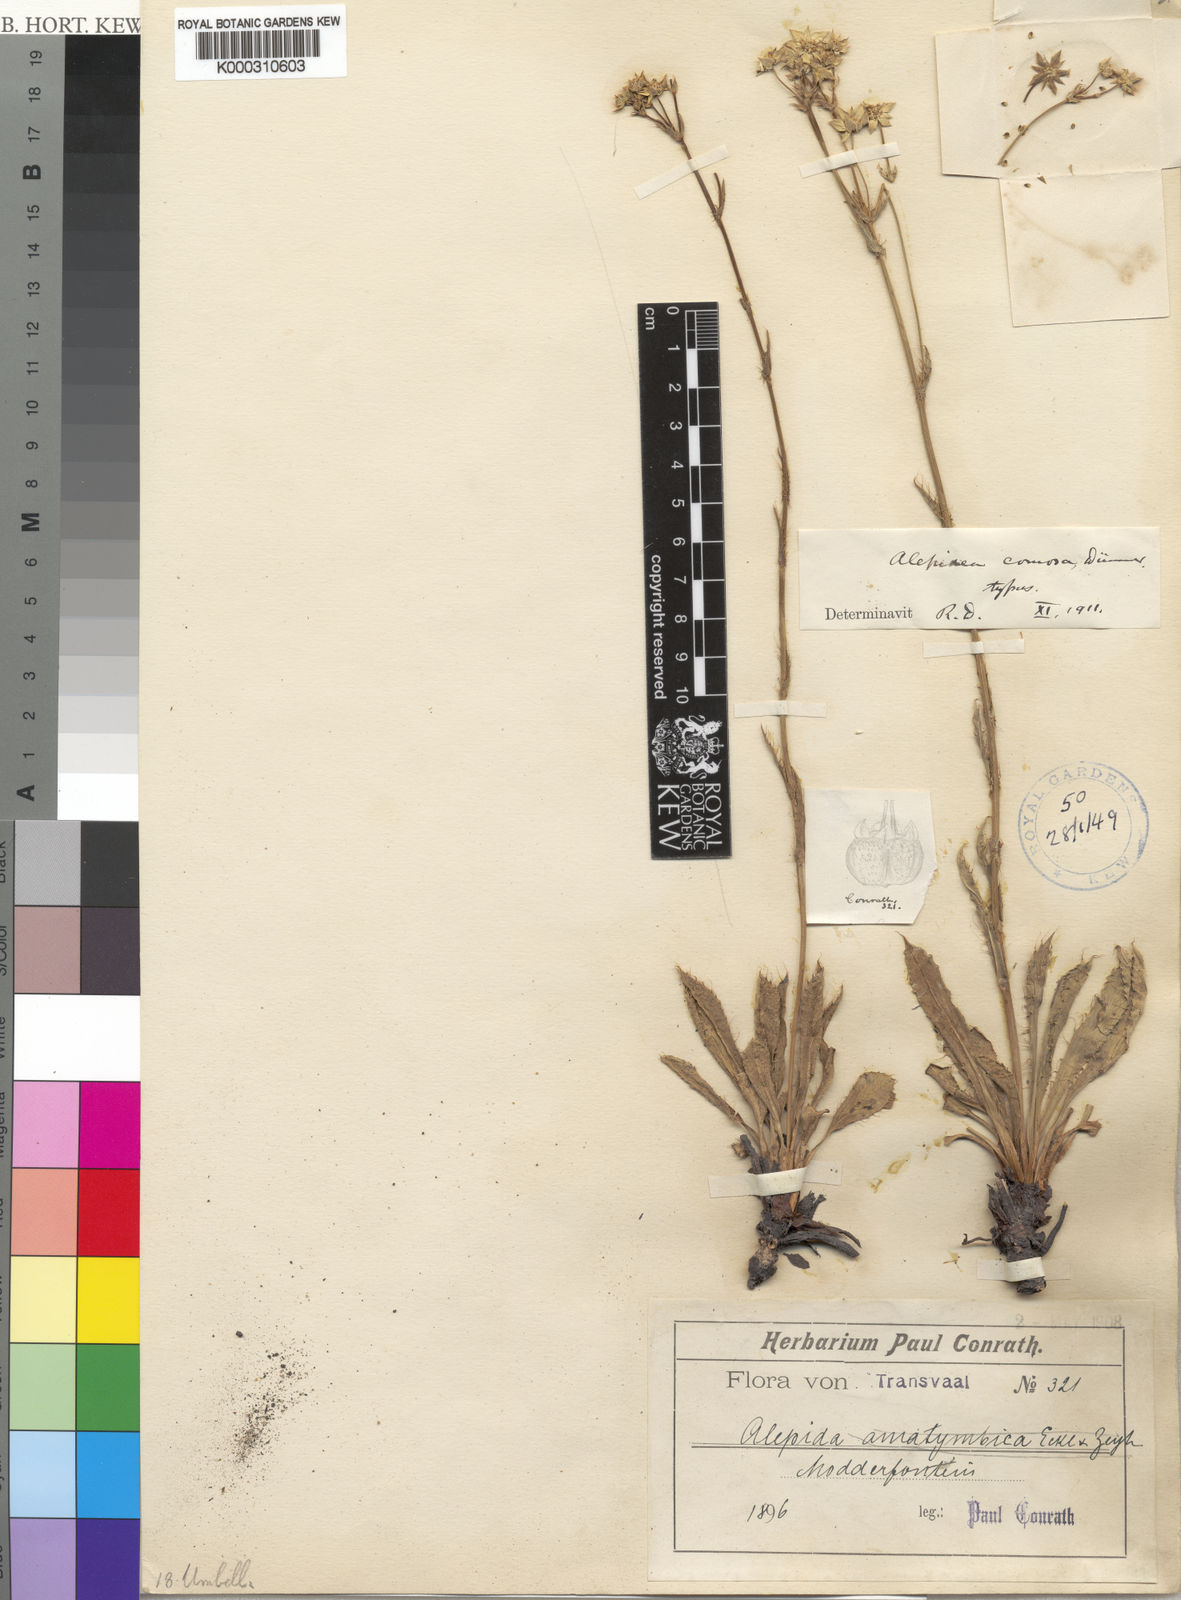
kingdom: Plantae
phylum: Tracheophyta
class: Magnoliopsida
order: Apiales
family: Apiaceae
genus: Alepidea
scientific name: Alepidea comosa
